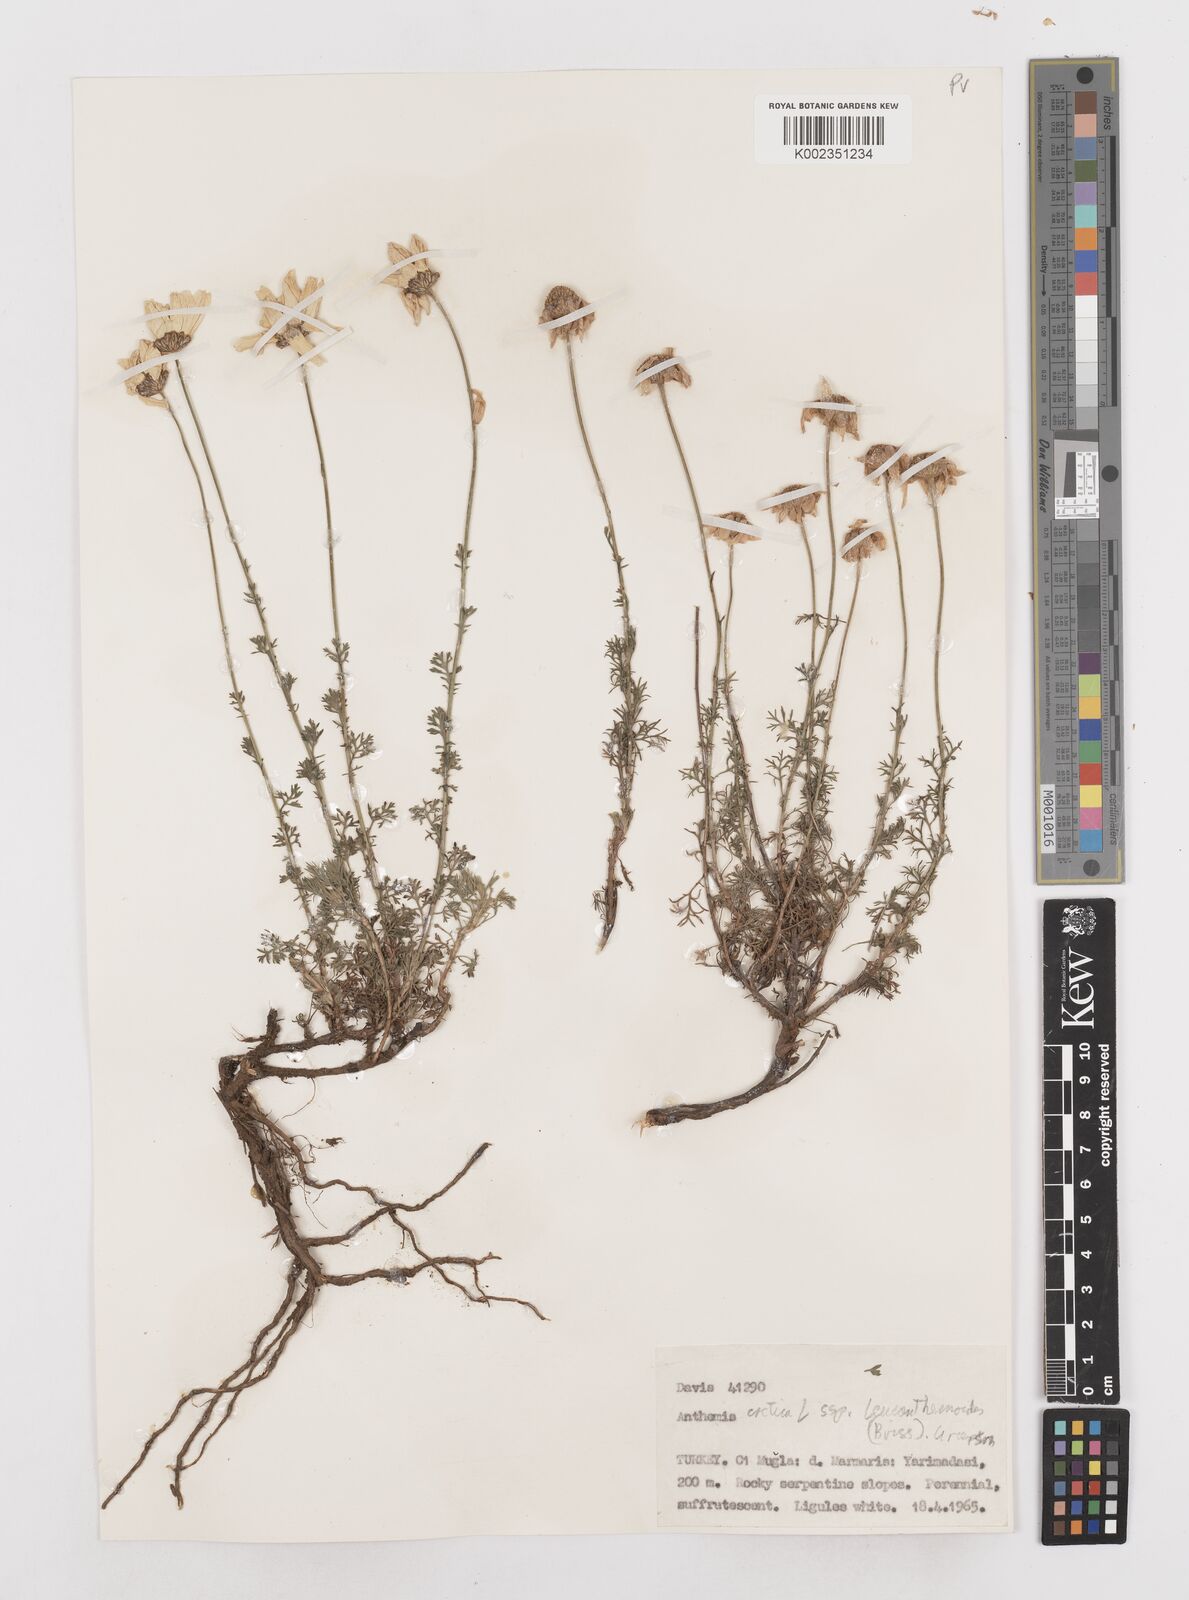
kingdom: Plantae
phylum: Tracheophyta
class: Magnoliopsida
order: Asterales
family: Asteraceae
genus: Anthemis
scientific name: Anthemis cretica
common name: Mountain dog-daisy
